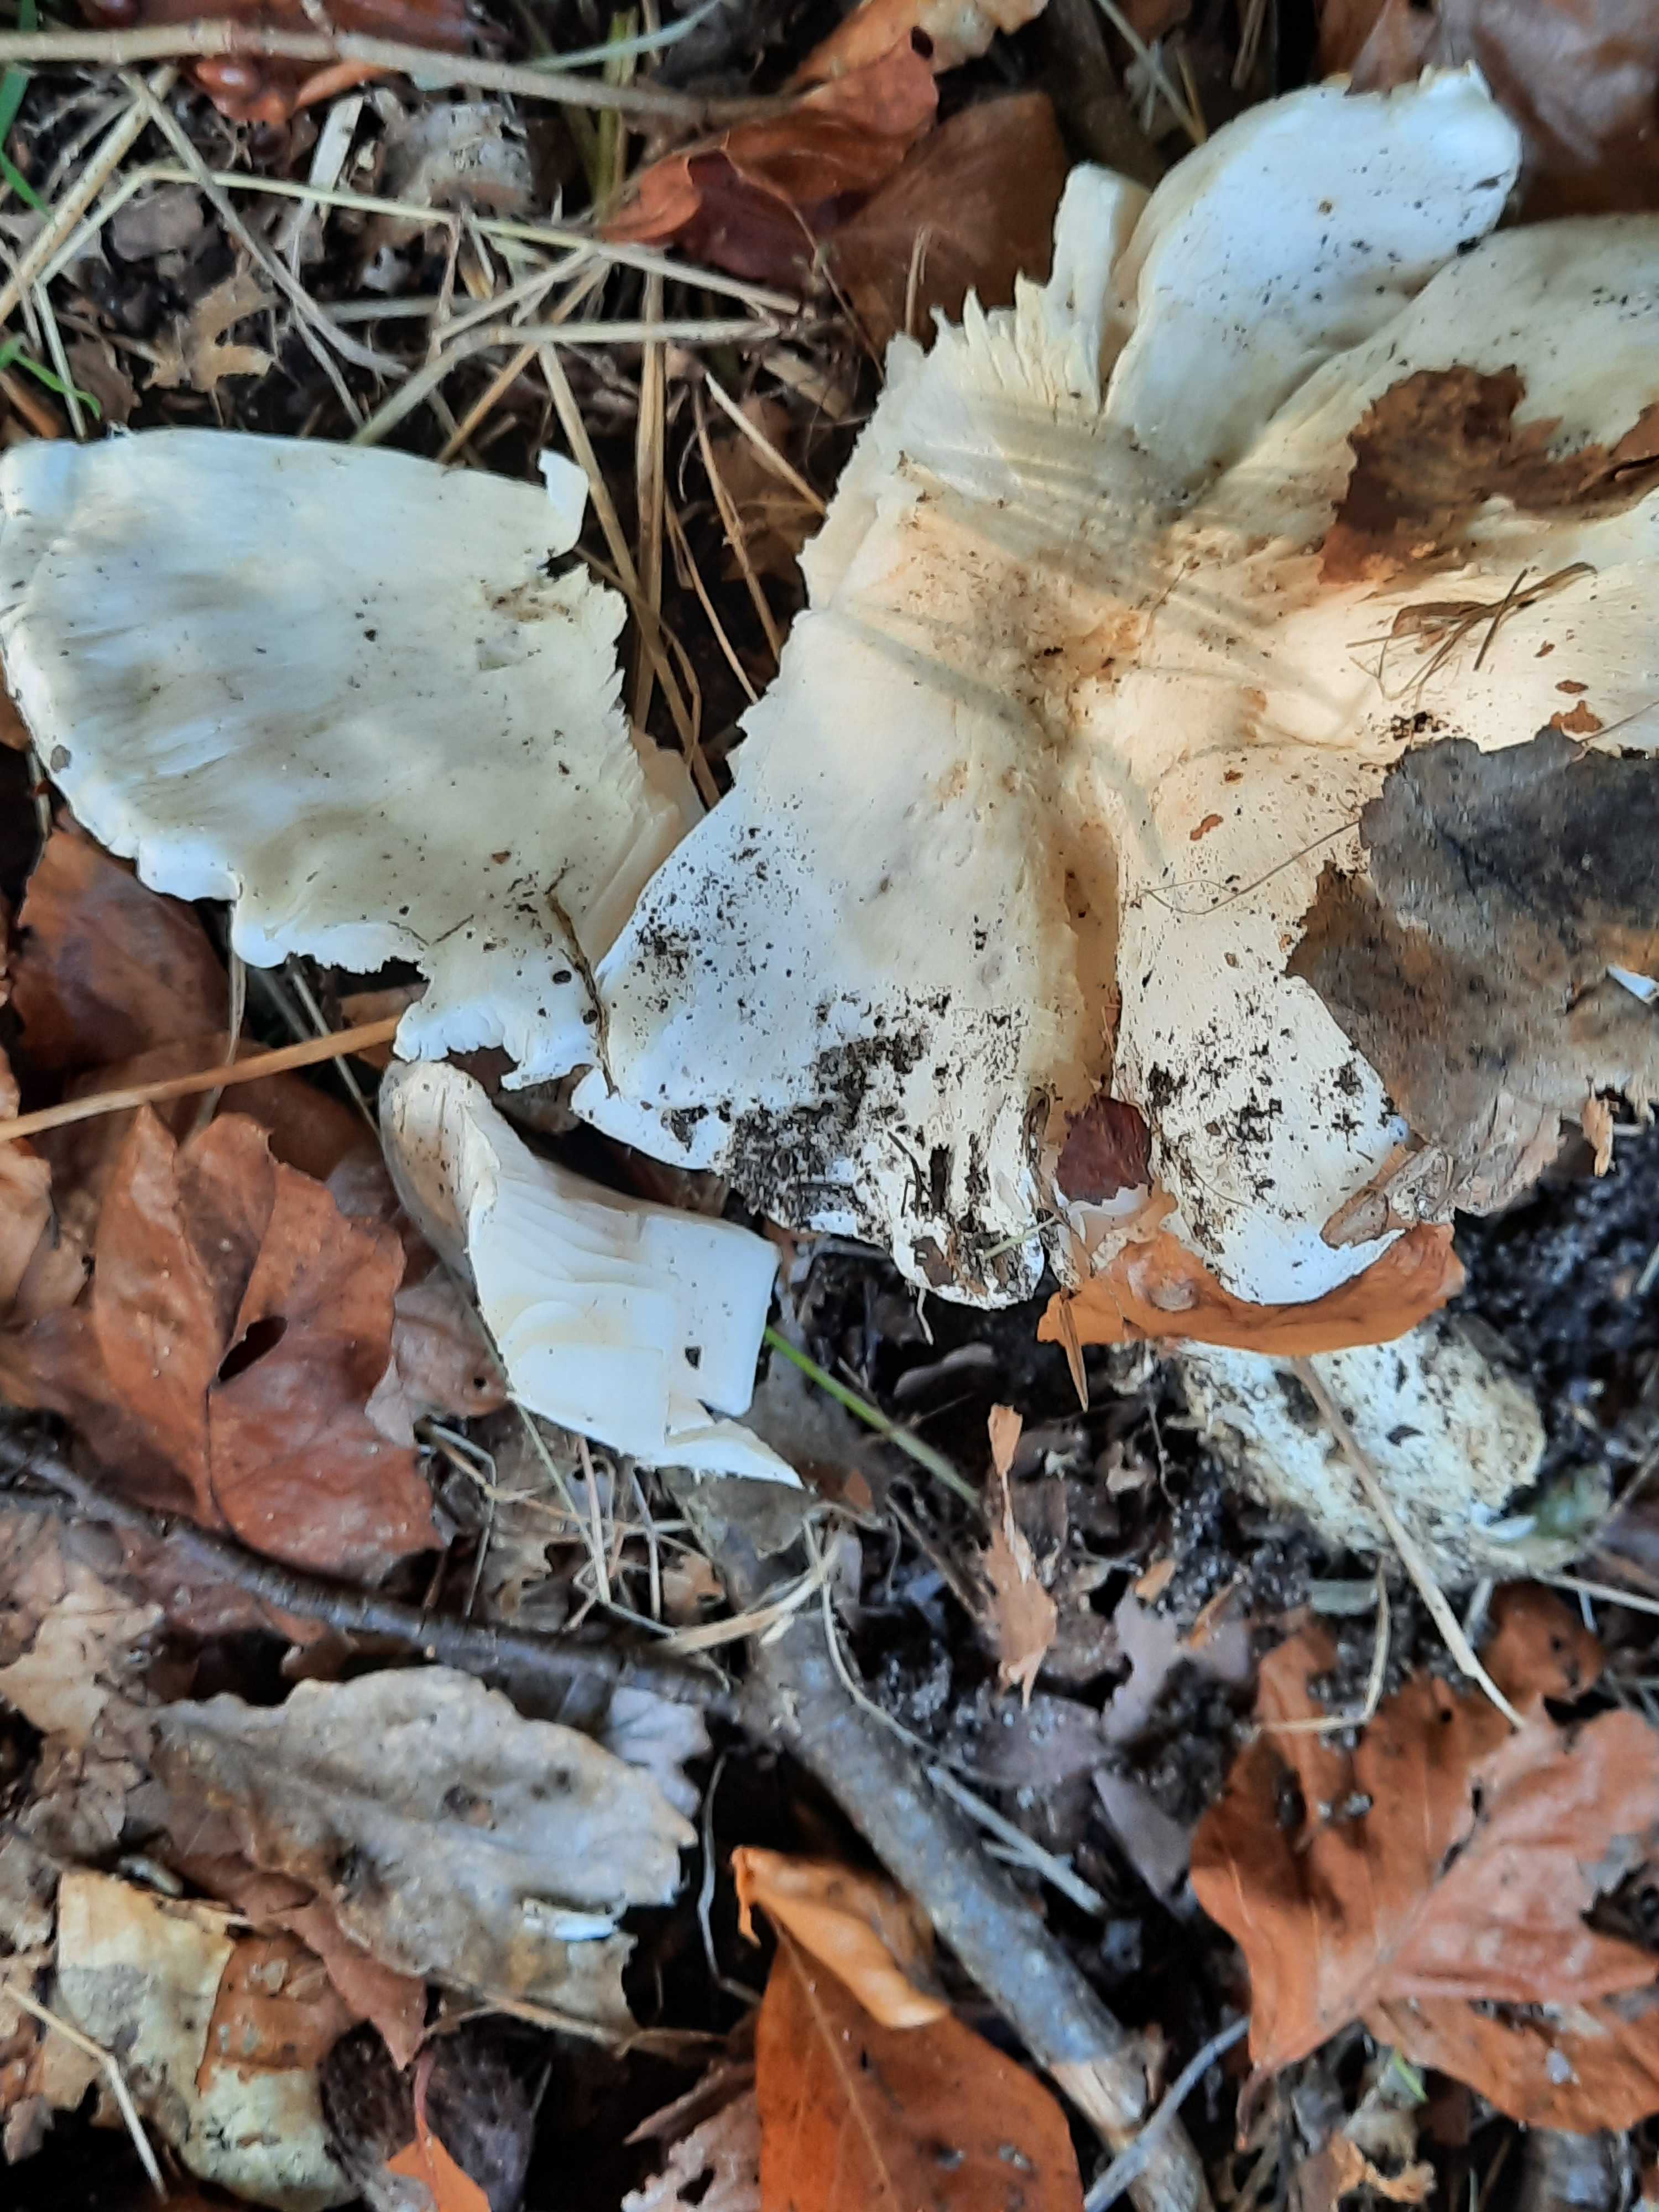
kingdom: Fungi
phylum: Basidiomycota
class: Agaricomycetes
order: Agaricales
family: Tricholomataceae
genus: Tricholoma
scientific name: Tricholoma columbetta
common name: silke-ridderhat
